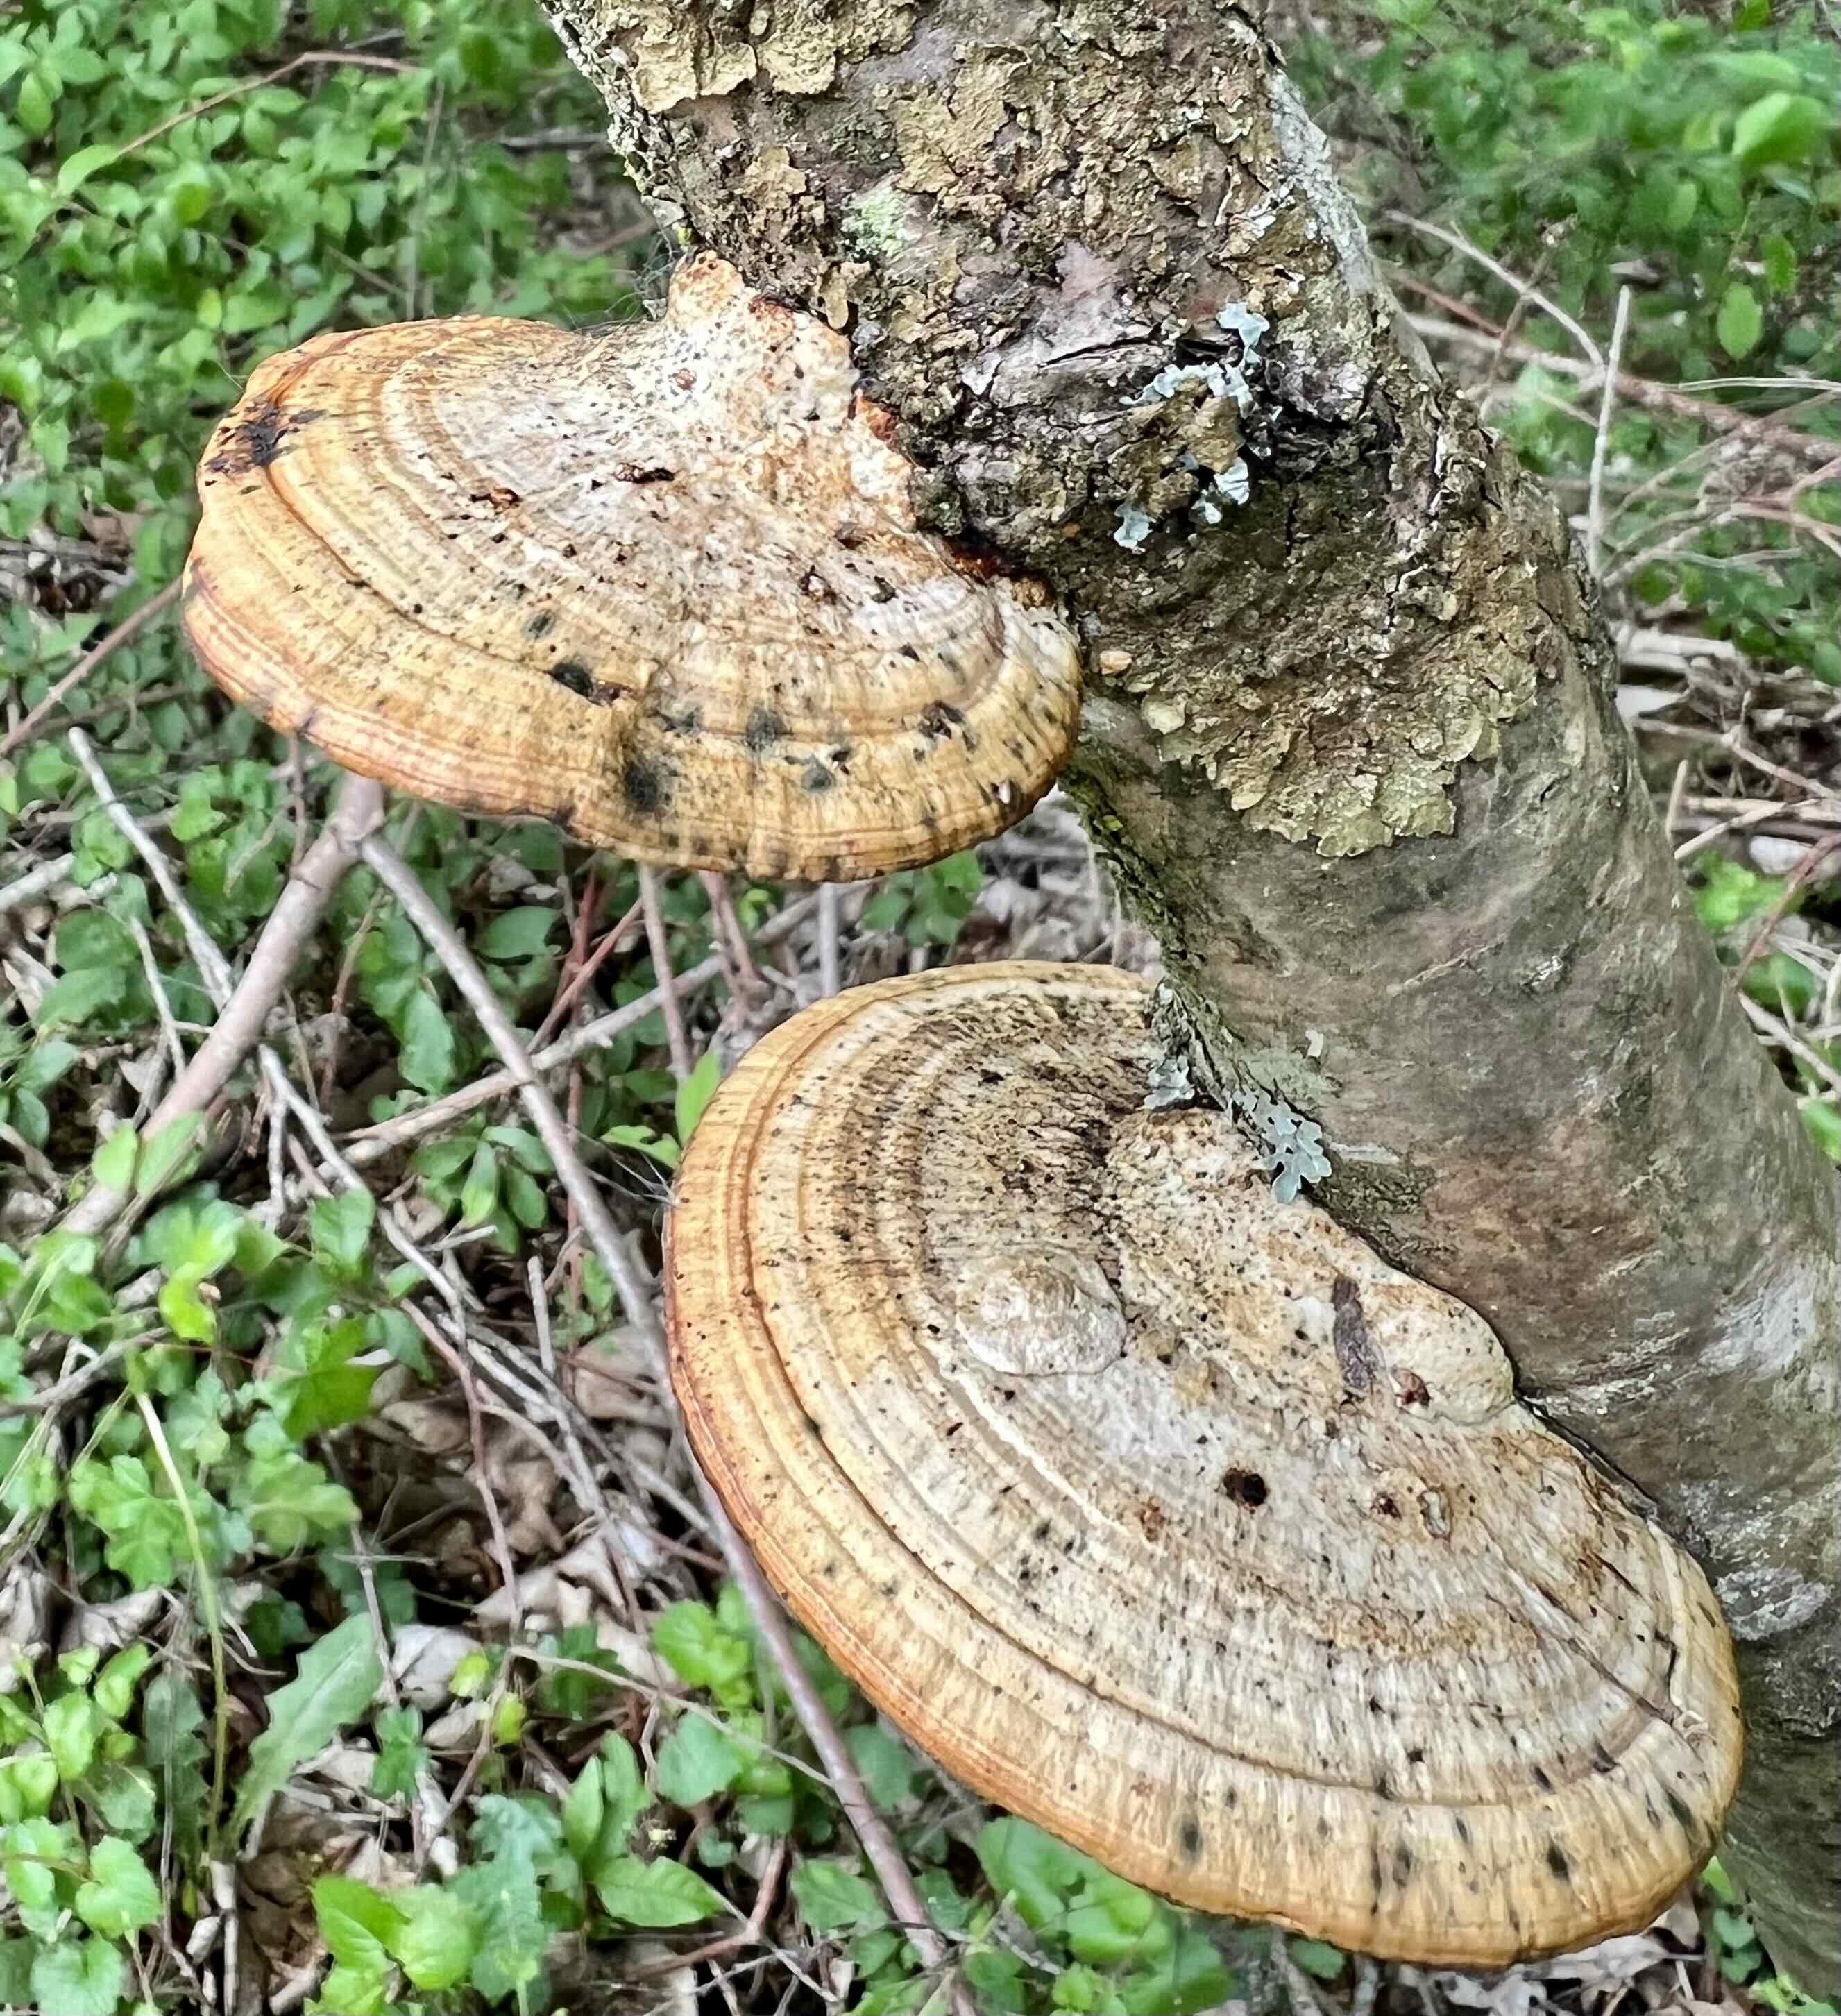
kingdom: Fungi
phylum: Basidiomycota
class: Agaricomycetes
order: Polyporales
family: Polyporaceae
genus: Daedaleopsis
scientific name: Daedaleopsis confragosa
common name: rødmende læderporesvamp
